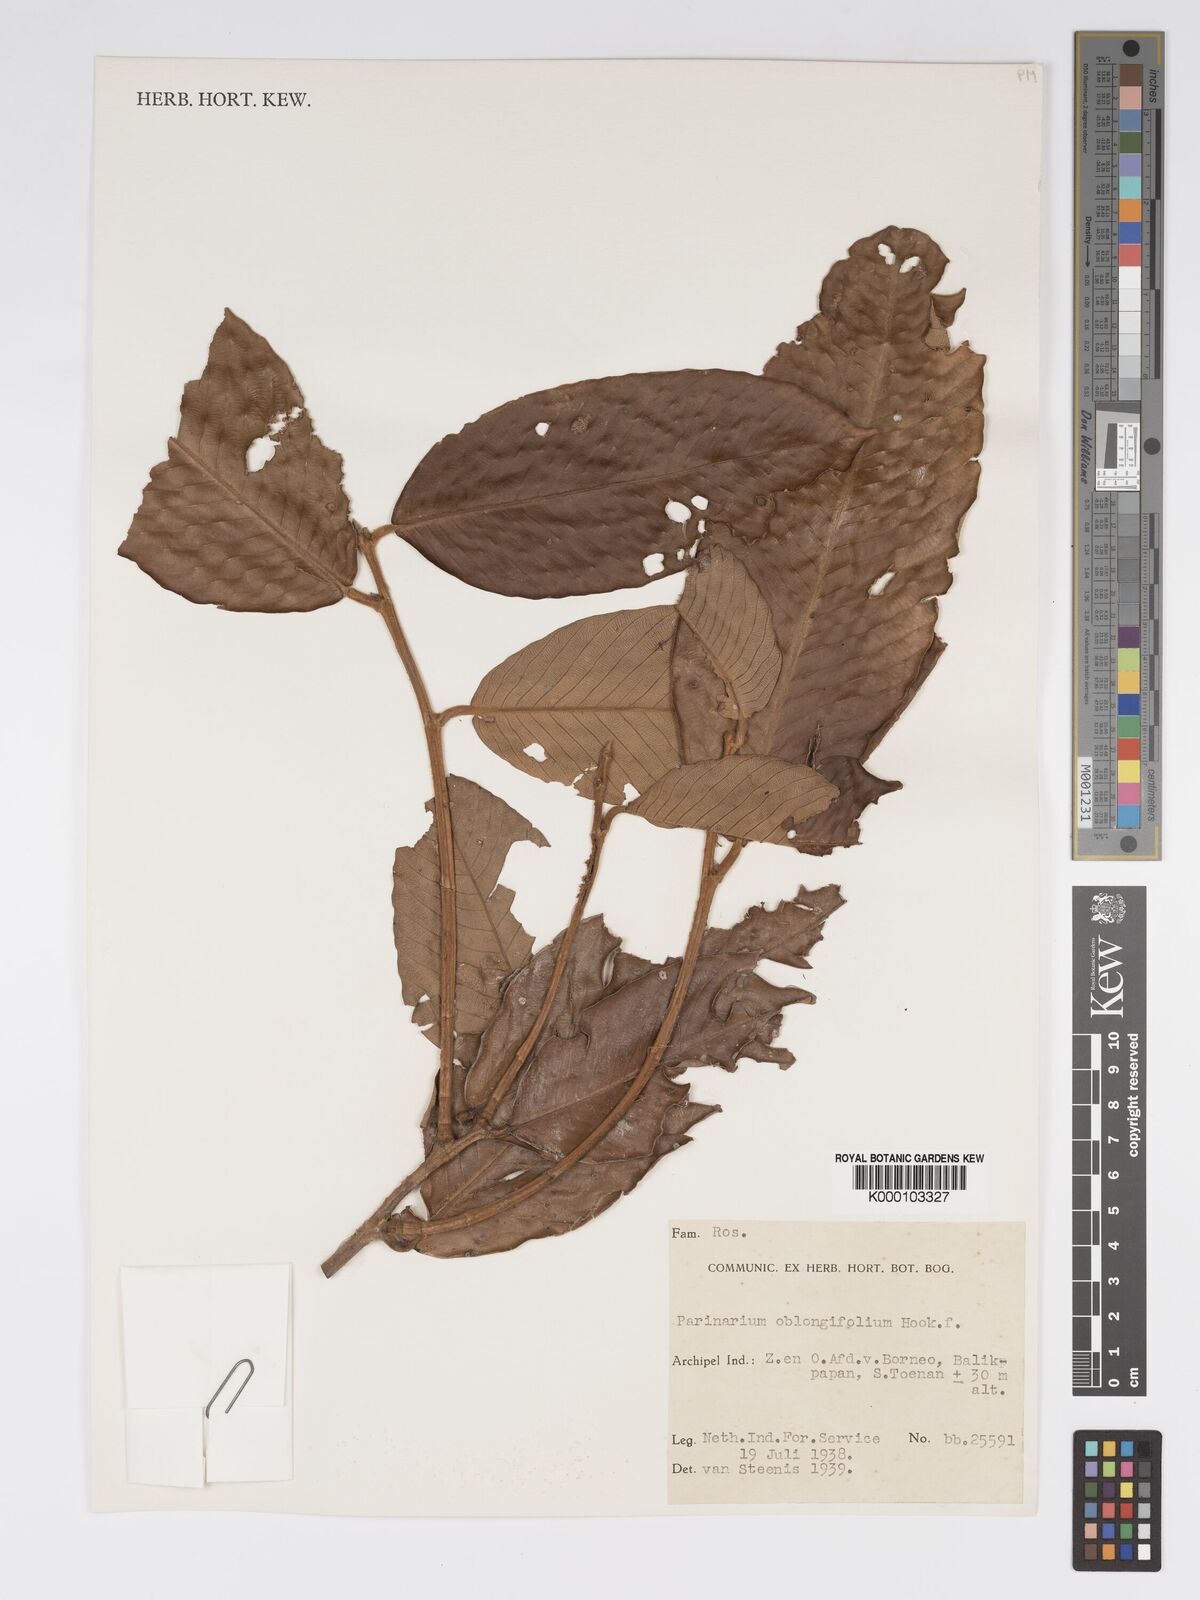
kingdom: Plantae
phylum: Tracheophyta
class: Magnoliopsida
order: Malpighiales
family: Chrysobalanaceae
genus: Parinari
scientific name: Parinari oblongifolia
